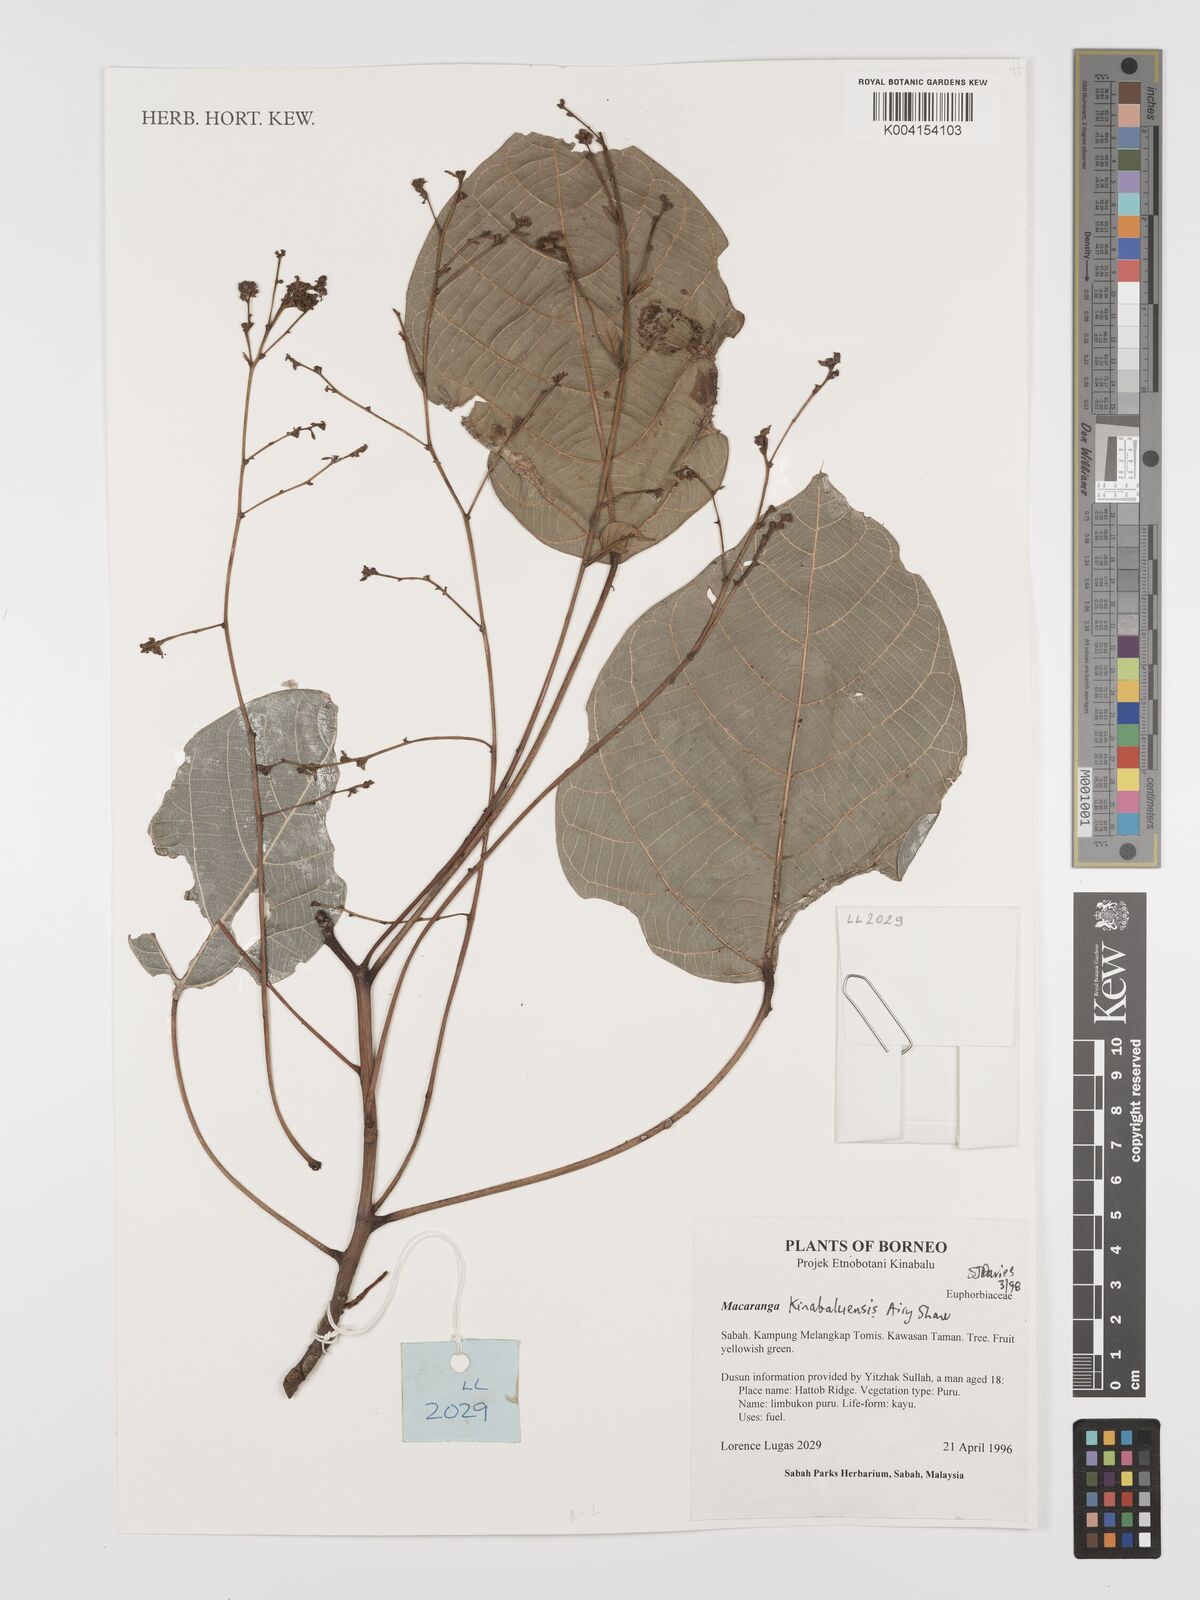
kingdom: Plantae
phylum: Tracheophyta
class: Magnoliopsida
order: Malpighiales
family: Euphorbiaceae
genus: Macaranga
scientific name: Macaranga kinabaluensis
